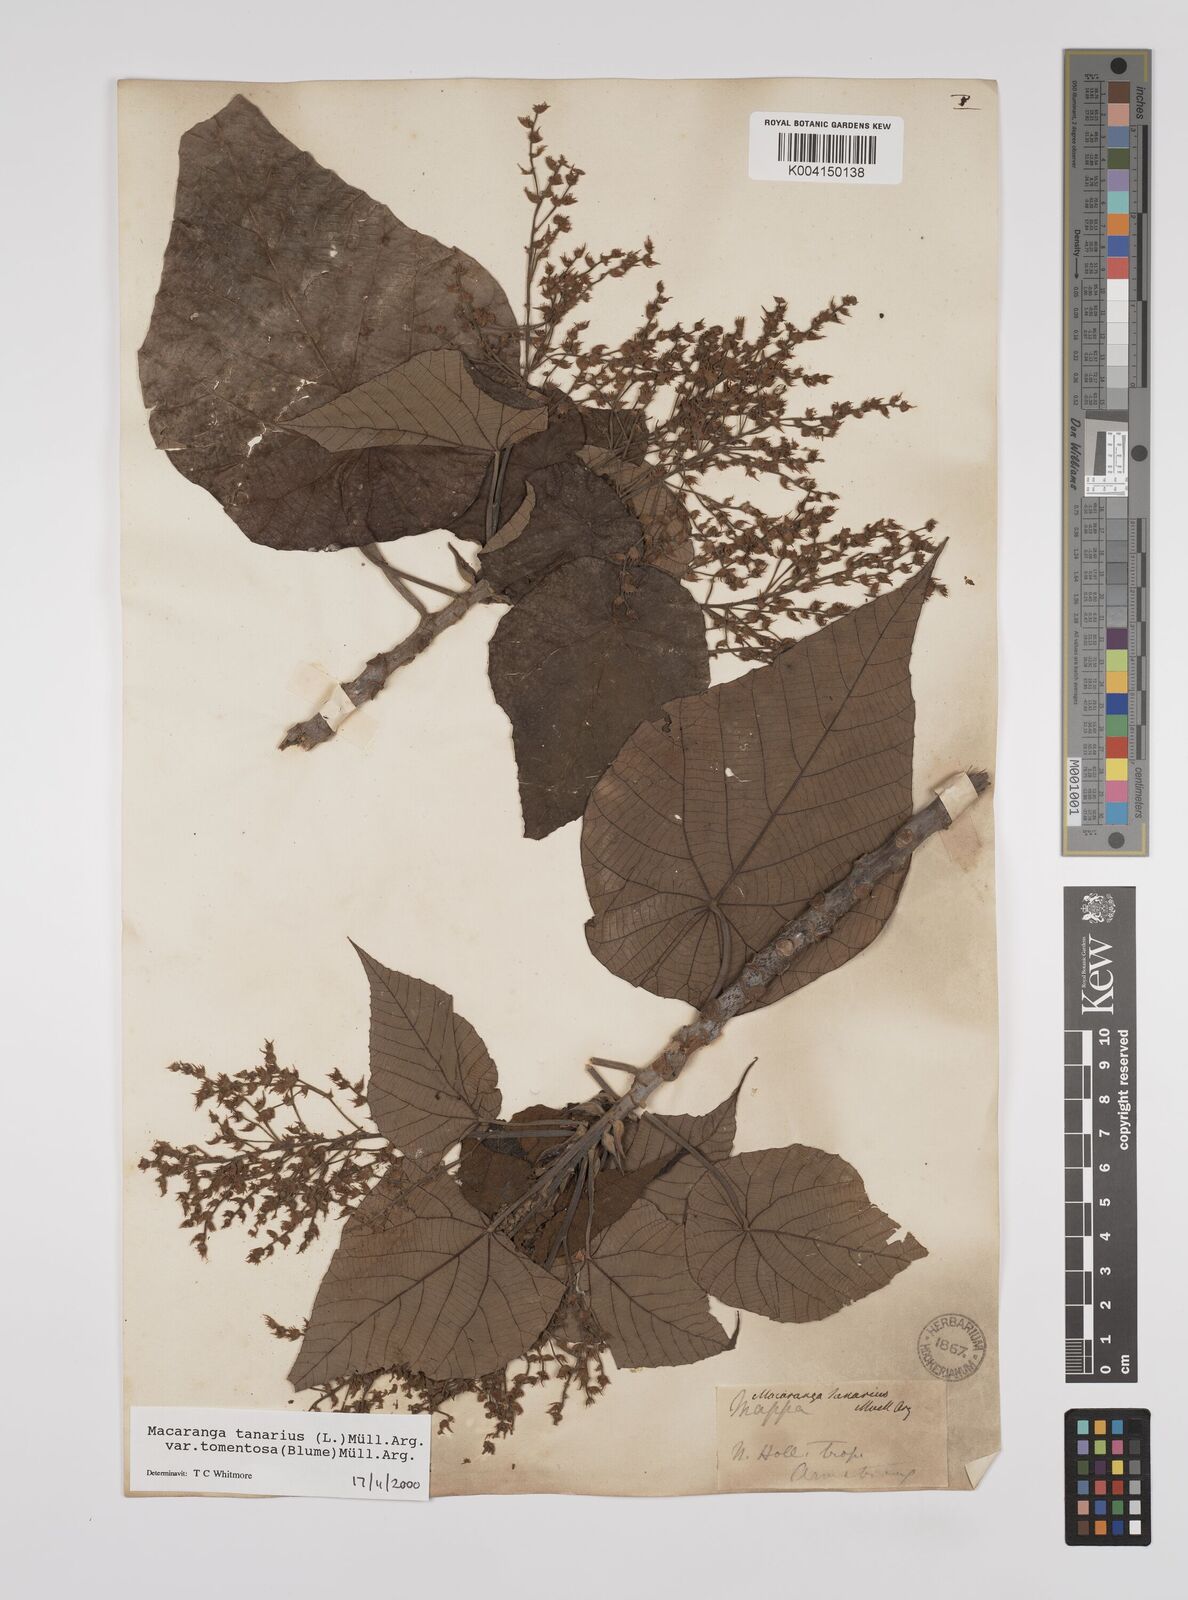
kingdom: Plantae
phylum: Tracheophyta
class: Magnoliopsida
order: Malpighiales
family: Euphorbiaceae
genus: Macaranga
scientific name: Macaranga tanarius
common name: Parasol leaf tree
